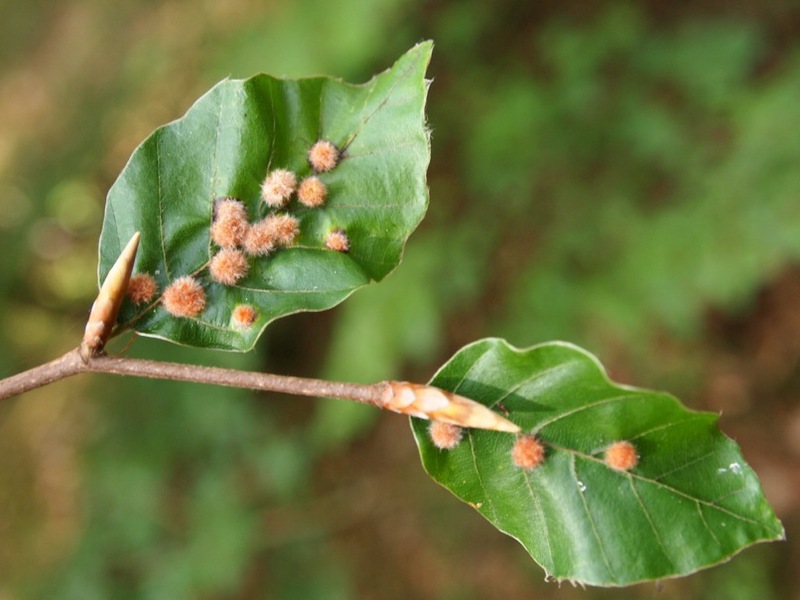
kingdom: Animalia
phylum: Arthropoda
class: Insecta
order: Diptera
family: Cecidomyiidae
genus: Hartigiola
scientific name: Hartigiola annulipes
